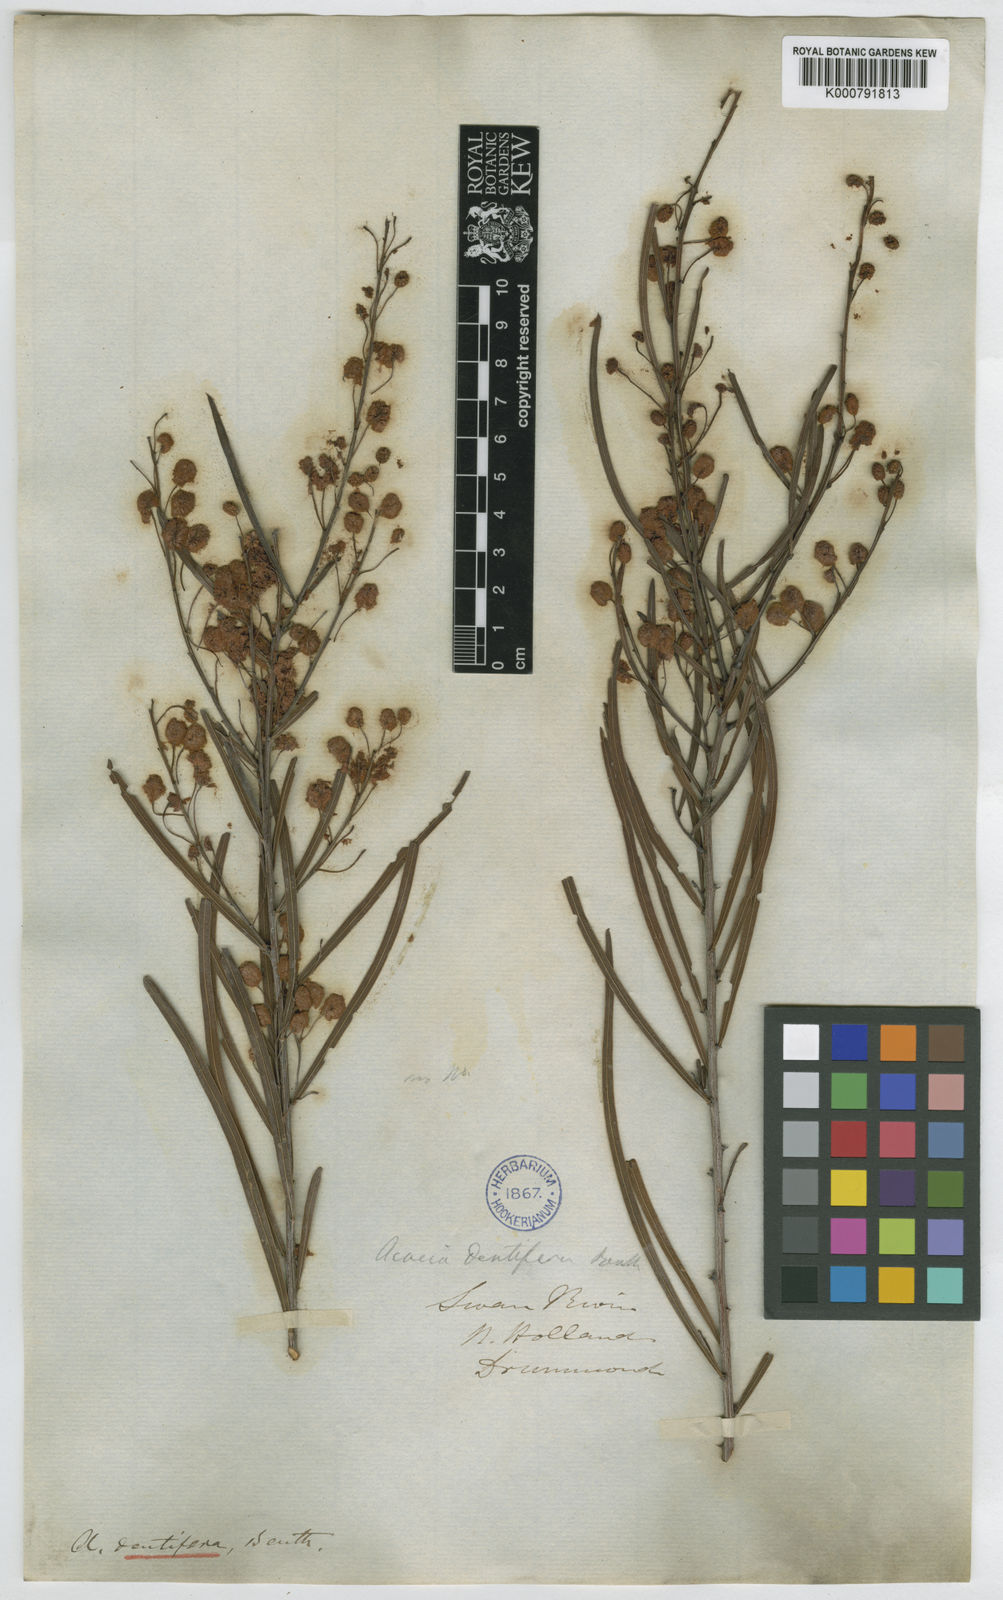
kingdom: Plantae
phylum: Tracheophyta
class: Magnoliopsida
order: Fabales
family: Fabaceae
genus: Acacia
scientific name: Acacia dentifera
